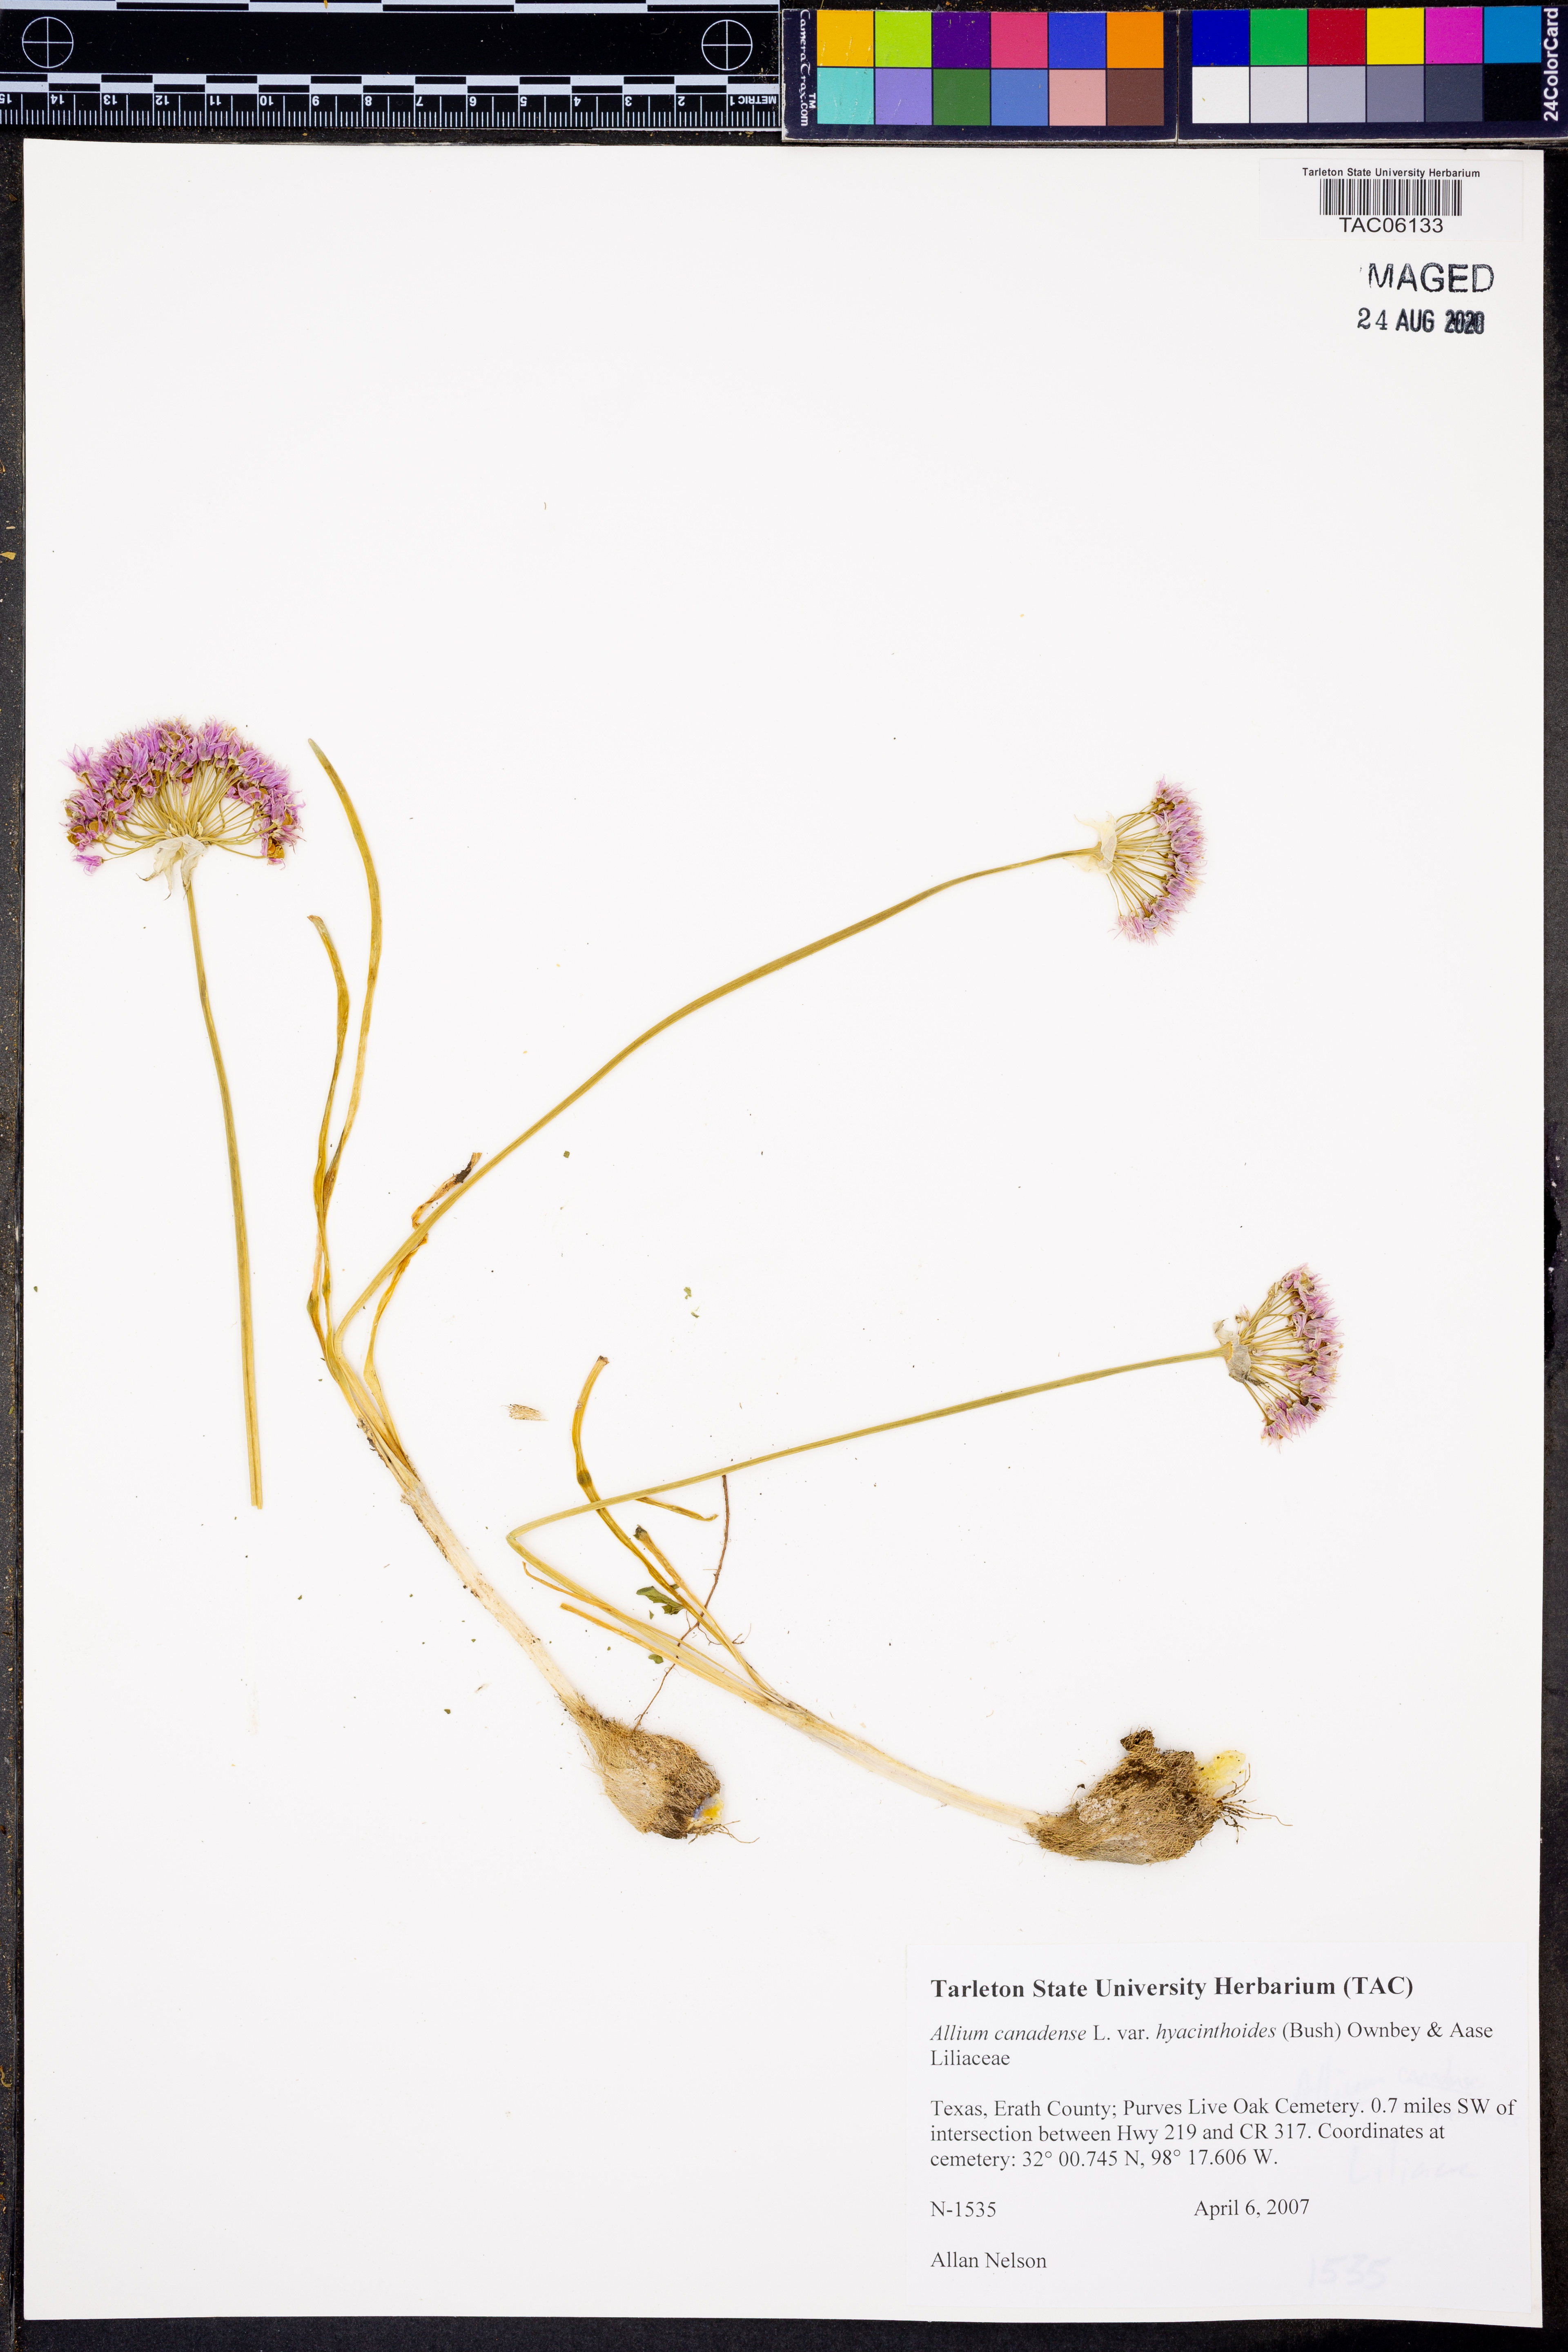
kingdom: Plantae
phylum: Tracheophyta
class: Liliopsida
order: Asparagales
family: Amaryllidaceae
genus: Allium
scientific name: Allium canadense
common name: Meadow garlic
